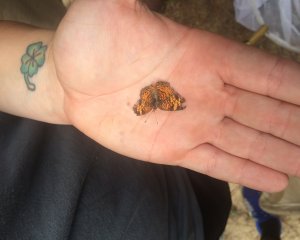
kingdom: Animalia
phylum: Arthropoda
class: Insecta
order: Lepidoptera
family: Nymphalidae
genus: Phyciodes
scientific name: Phyciodes tharos
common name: Pearl Crescent
